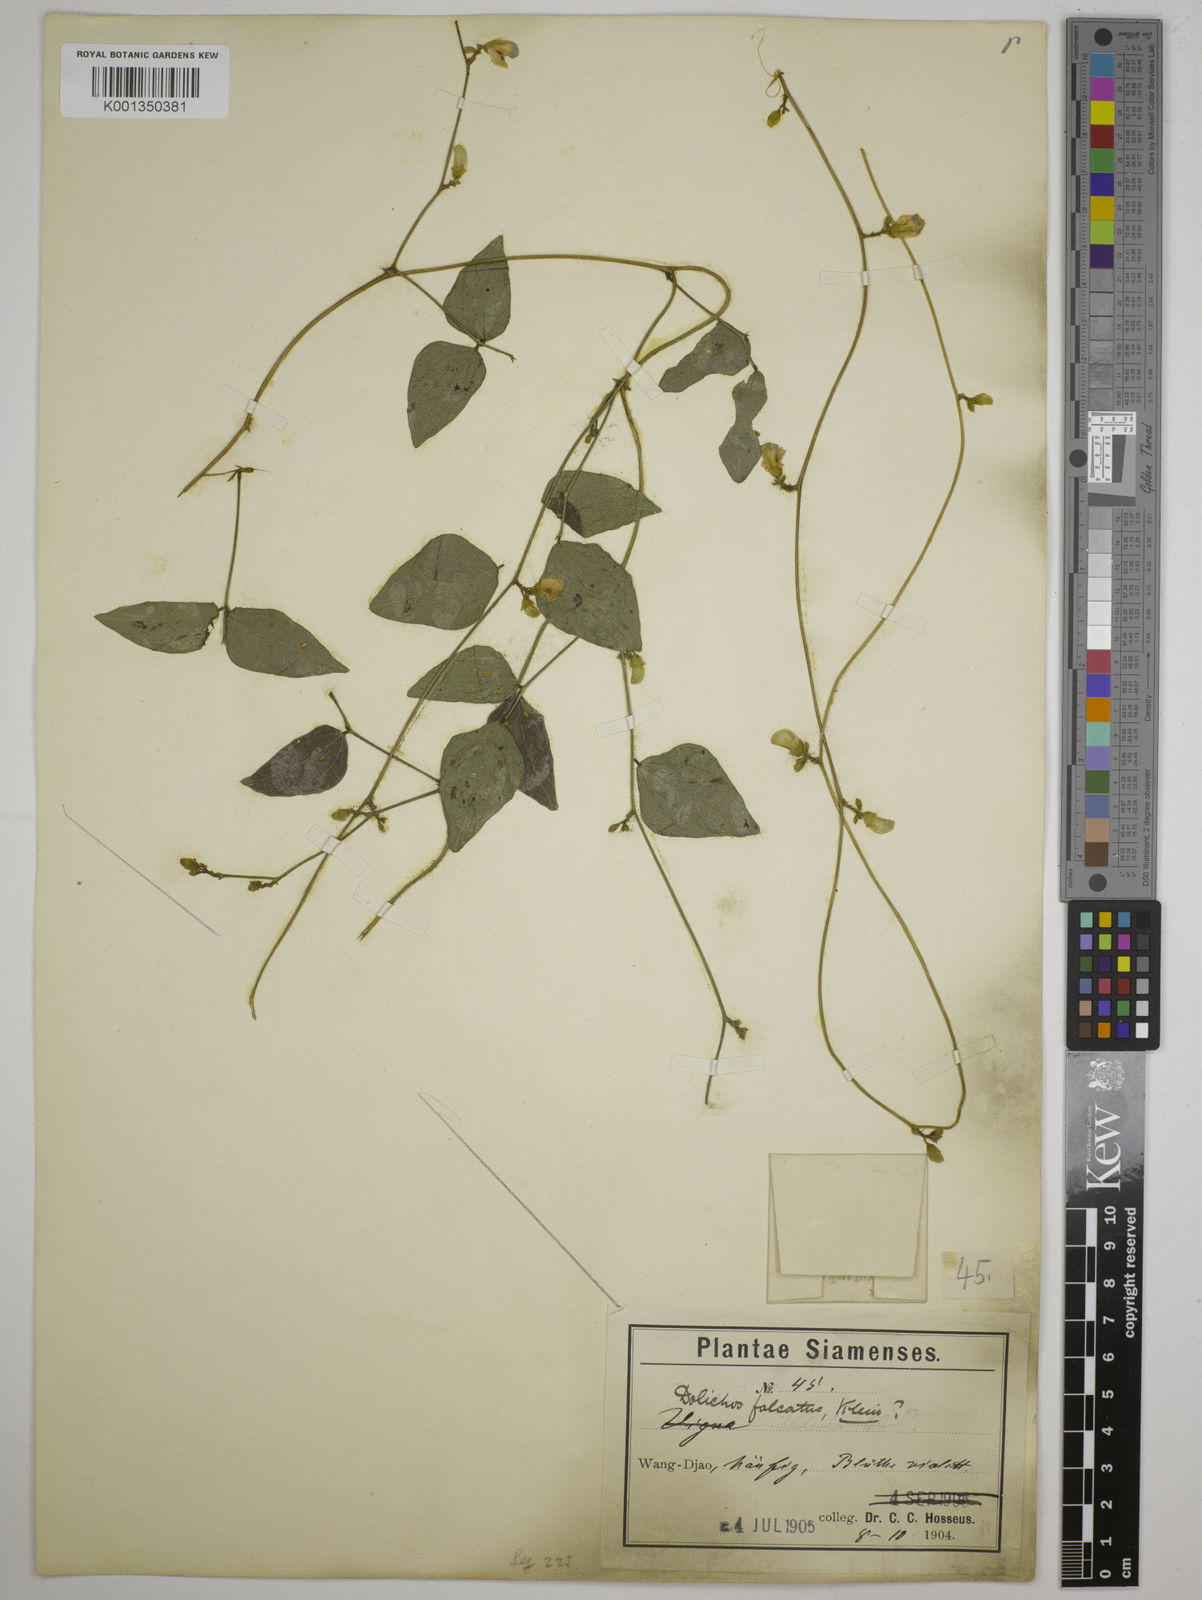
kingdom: Plantae
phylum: Tracheophyta
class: Magnoliopsida
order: Fabales
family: Fabaceae
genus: Dolichos
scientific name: Dolichos
